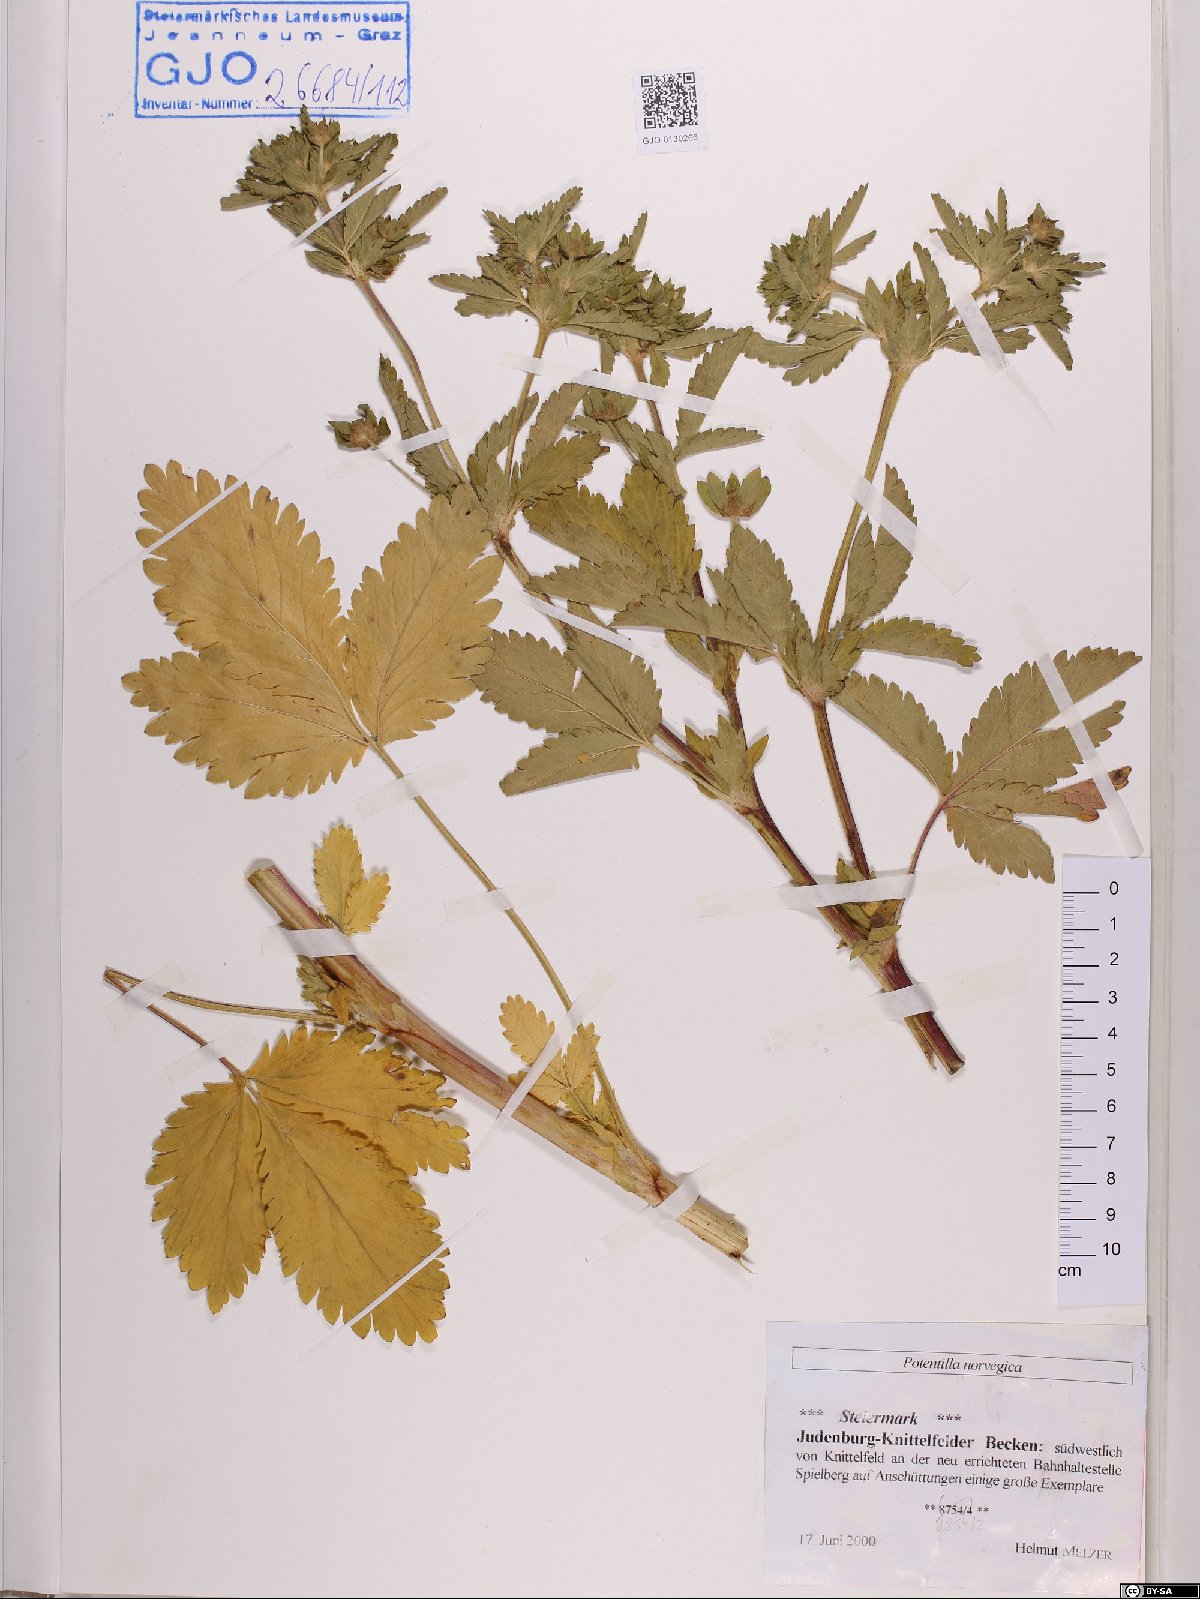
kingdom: Plantae
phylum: Tracheophyta
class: Magnoliopsida
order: Rosales
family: Rosaceae
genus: Potentilla
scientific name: Potentilla norvegica
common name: Ternate-leaved cinquefoil
